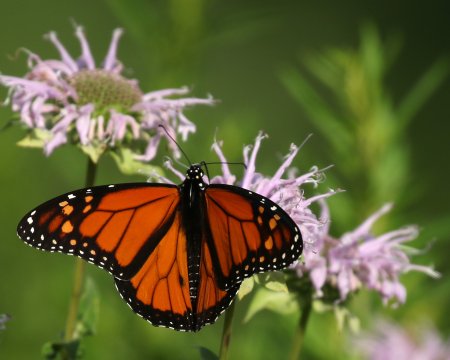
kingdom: Animalia
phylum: Arthropoda
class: Insecta
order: Lepidoptera
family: Nymphalidae
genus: Danaus
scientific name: Danaus plexippus
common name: Monarch
